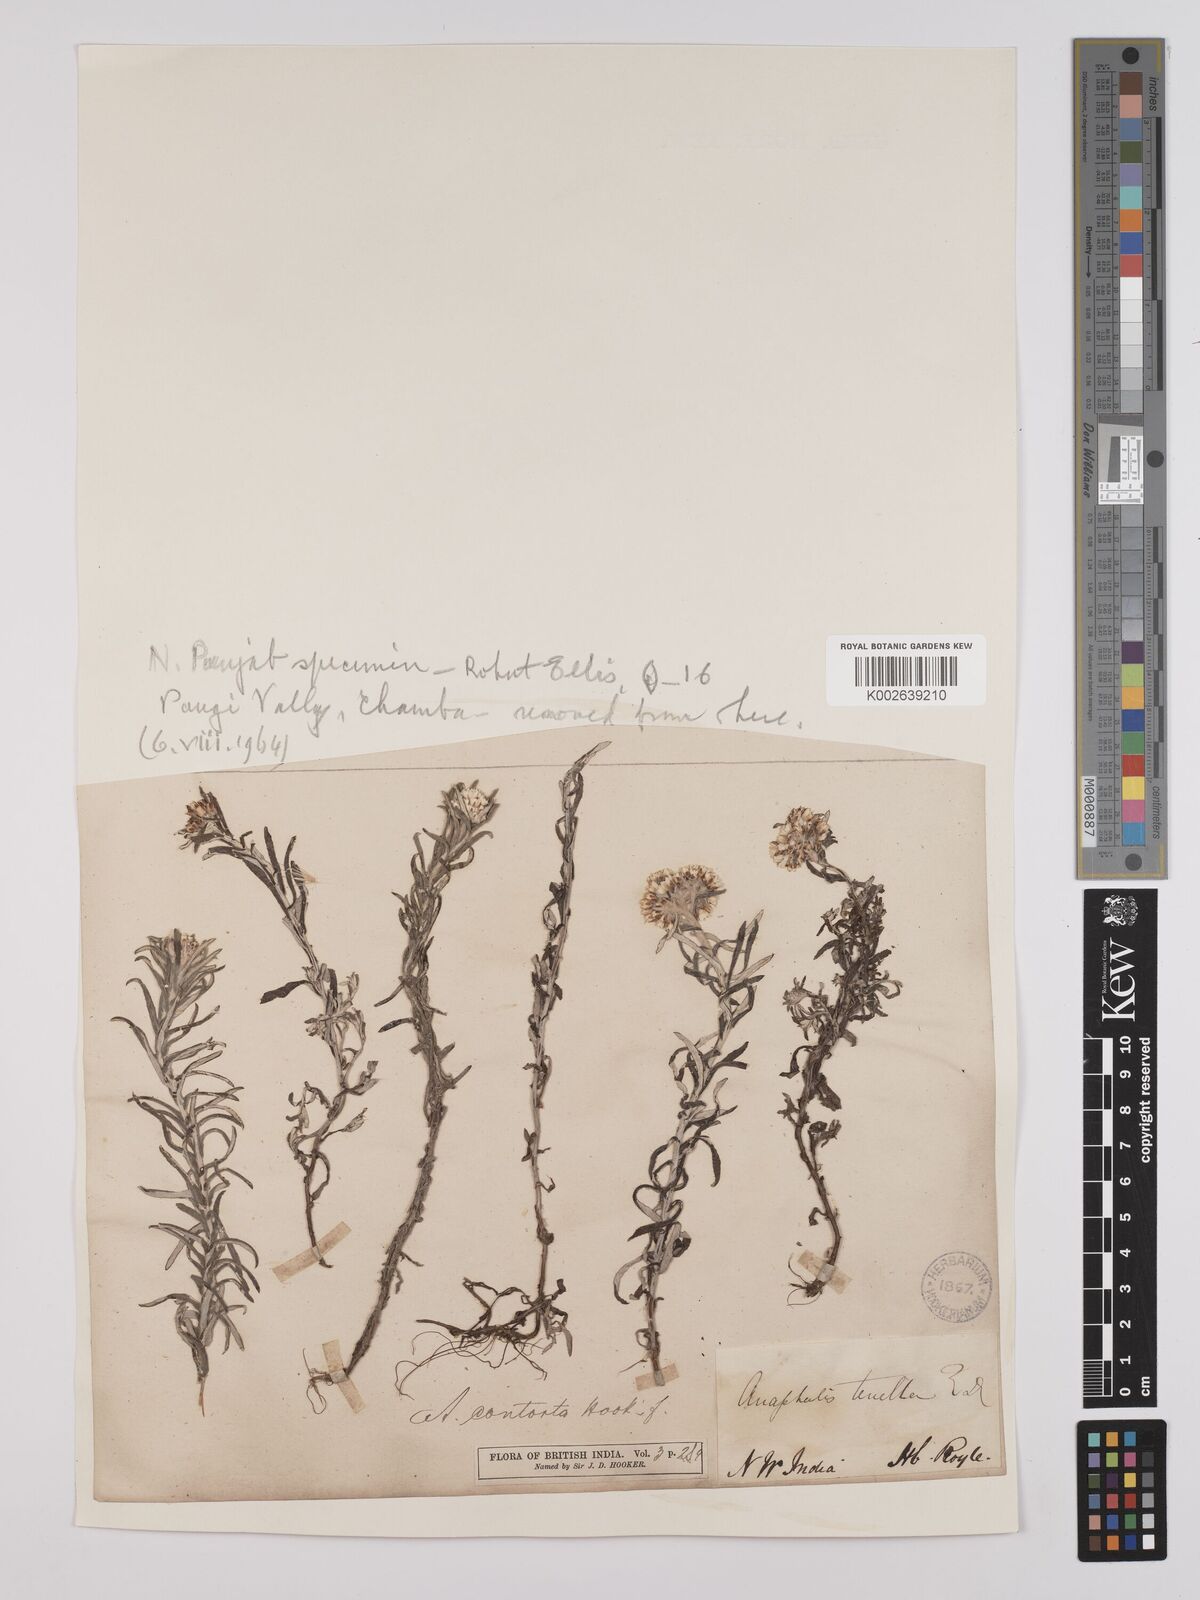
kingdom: Plantae
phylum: Tracheophyta
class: Magnoliopsida
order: Asterales
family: Asteraceae
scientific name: Asteraceae
